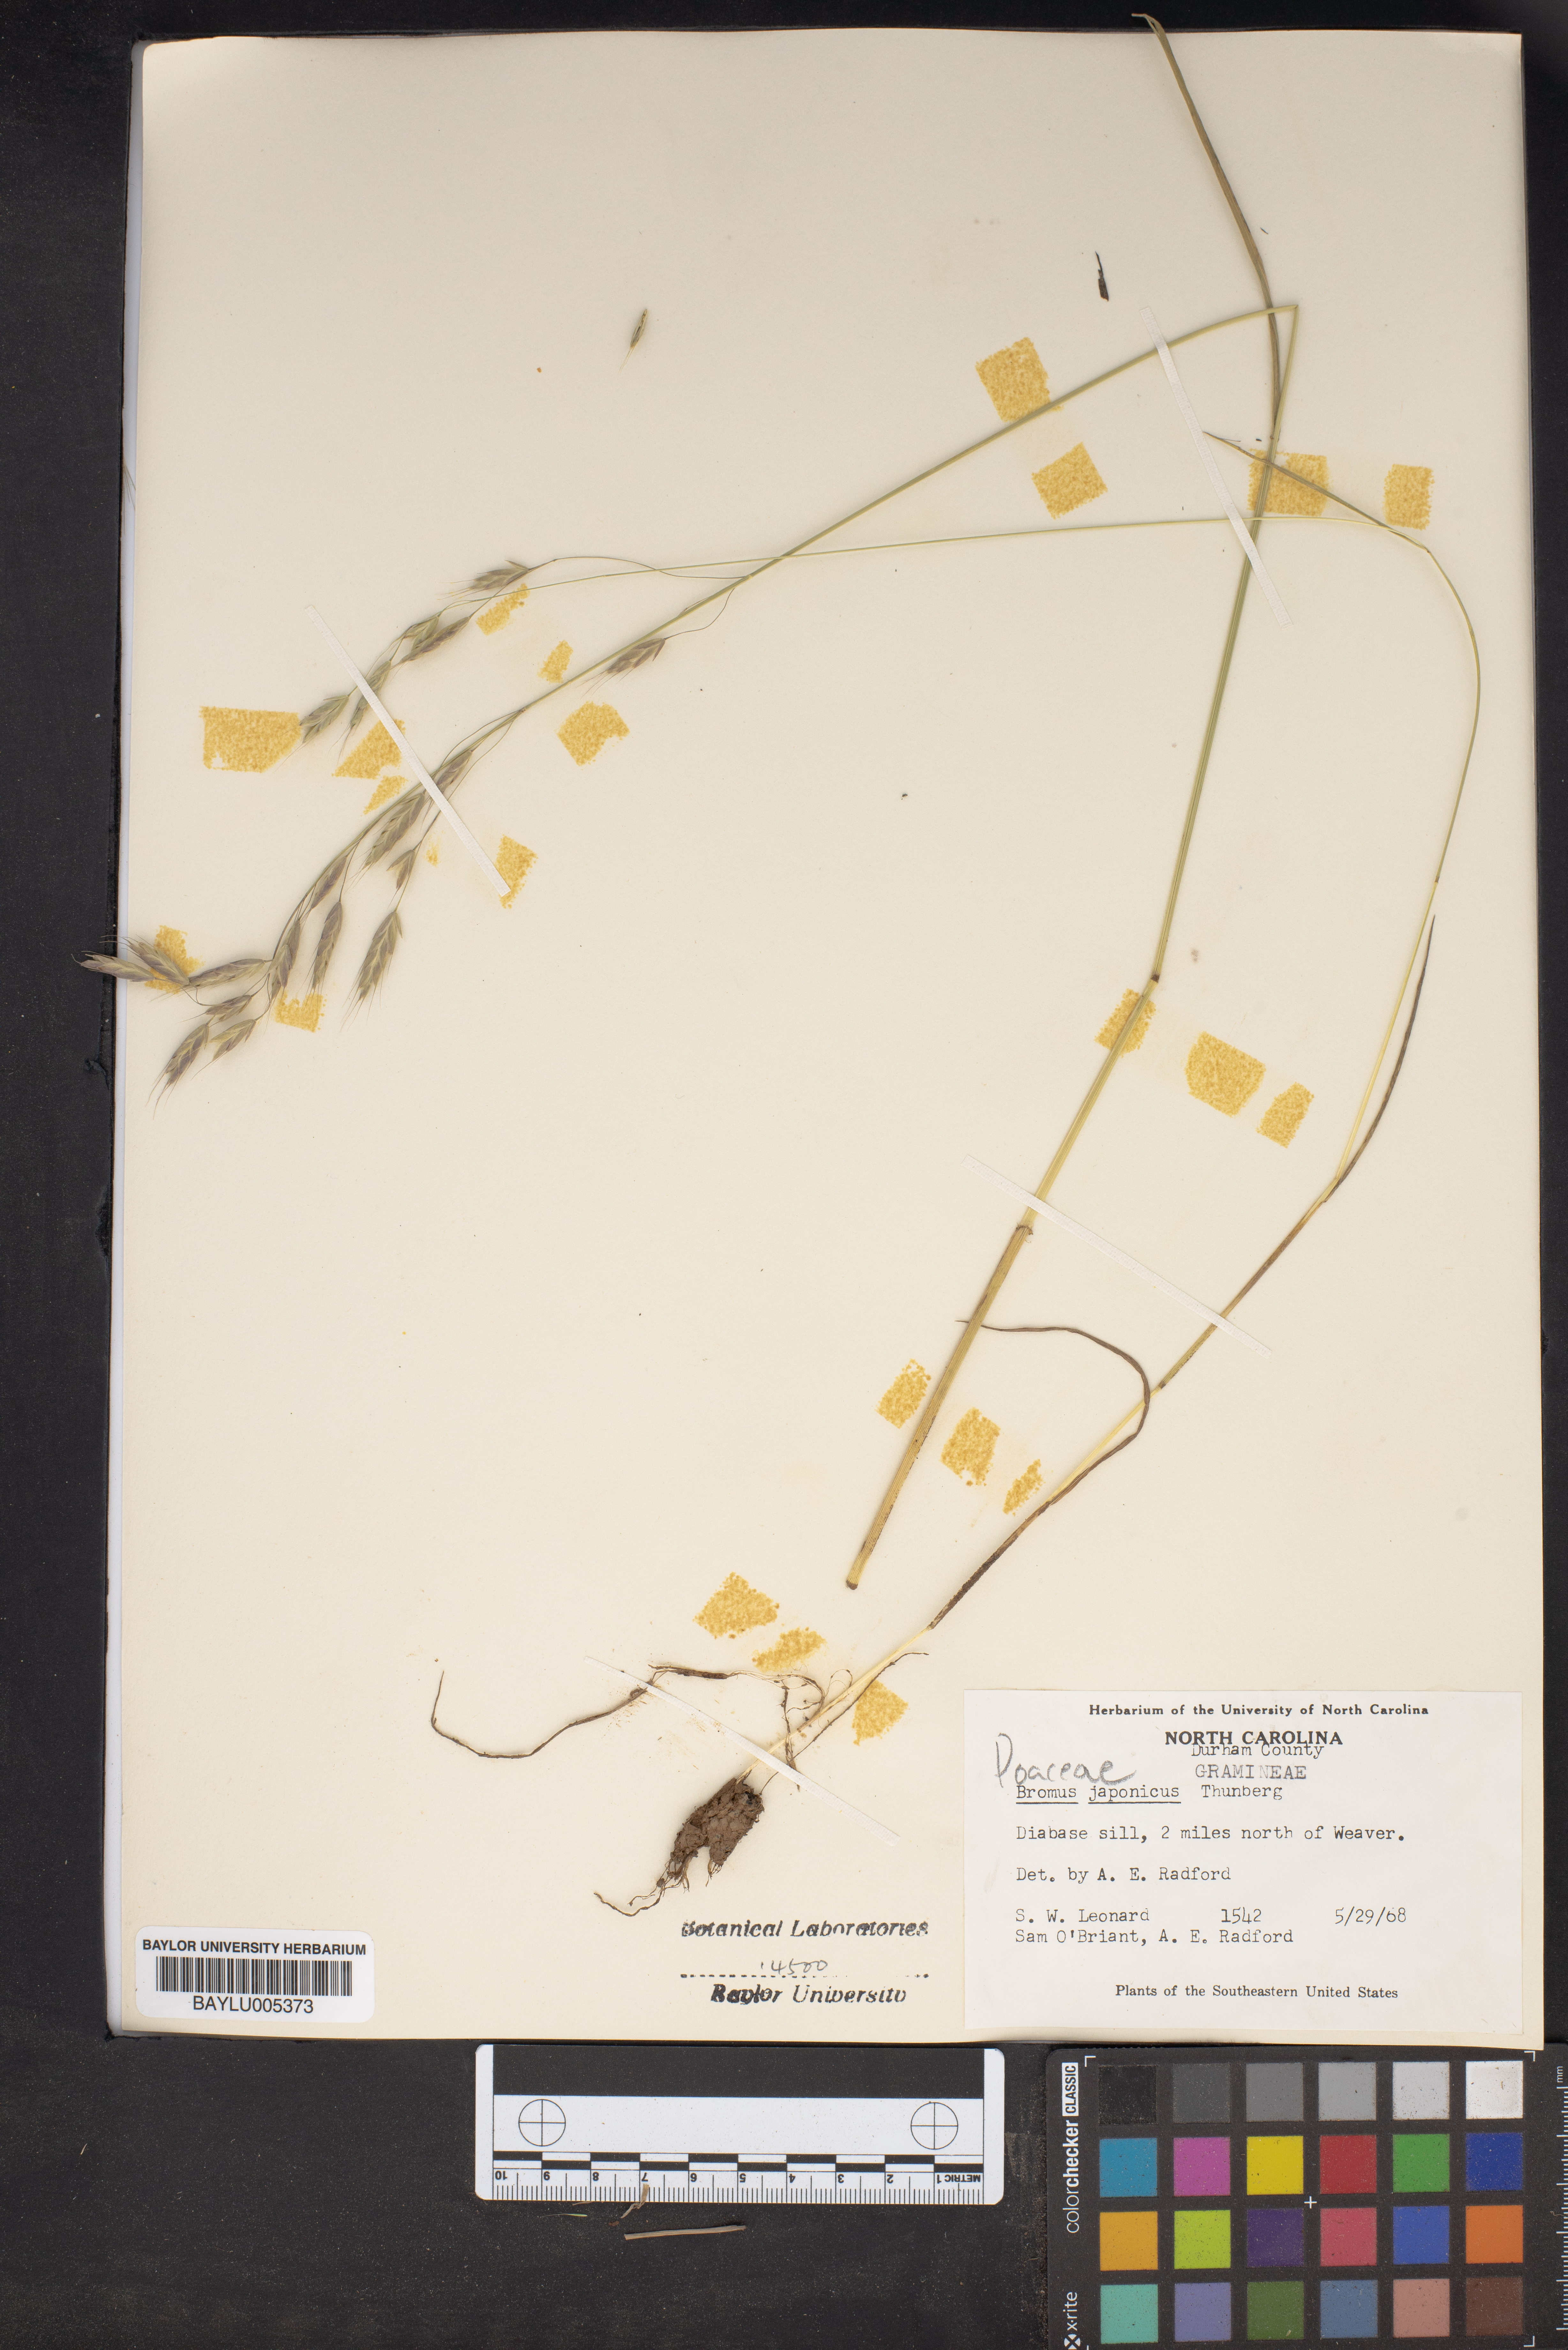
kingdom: Plantae
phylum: Tracheophyta
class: Liliopsida
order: Poales
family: Poaceae
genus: Bromus
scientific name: Bromus japonicus
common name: Japanese brome
